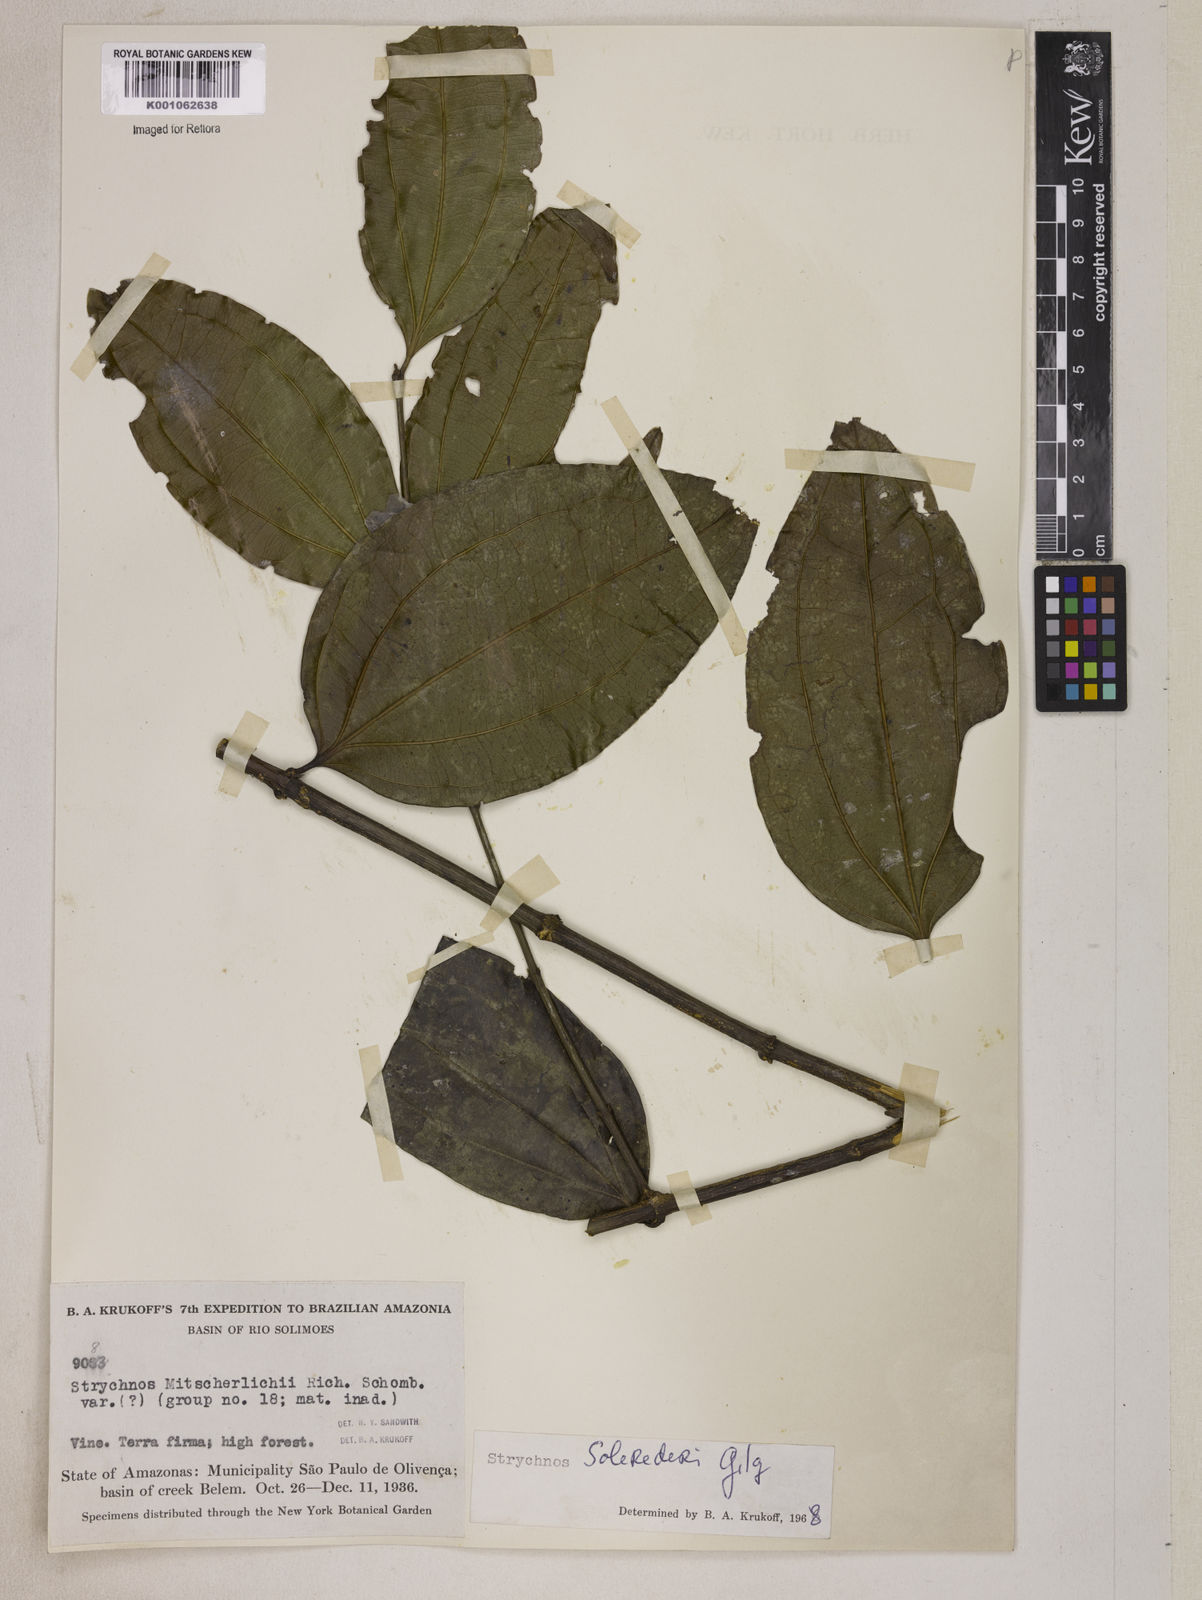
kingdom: Plantae
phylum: Tracheophyta
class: Magnoliopsida
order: Gentianales
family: Loganiaceae
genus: Strychnos
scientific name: Strychnos solerederi
